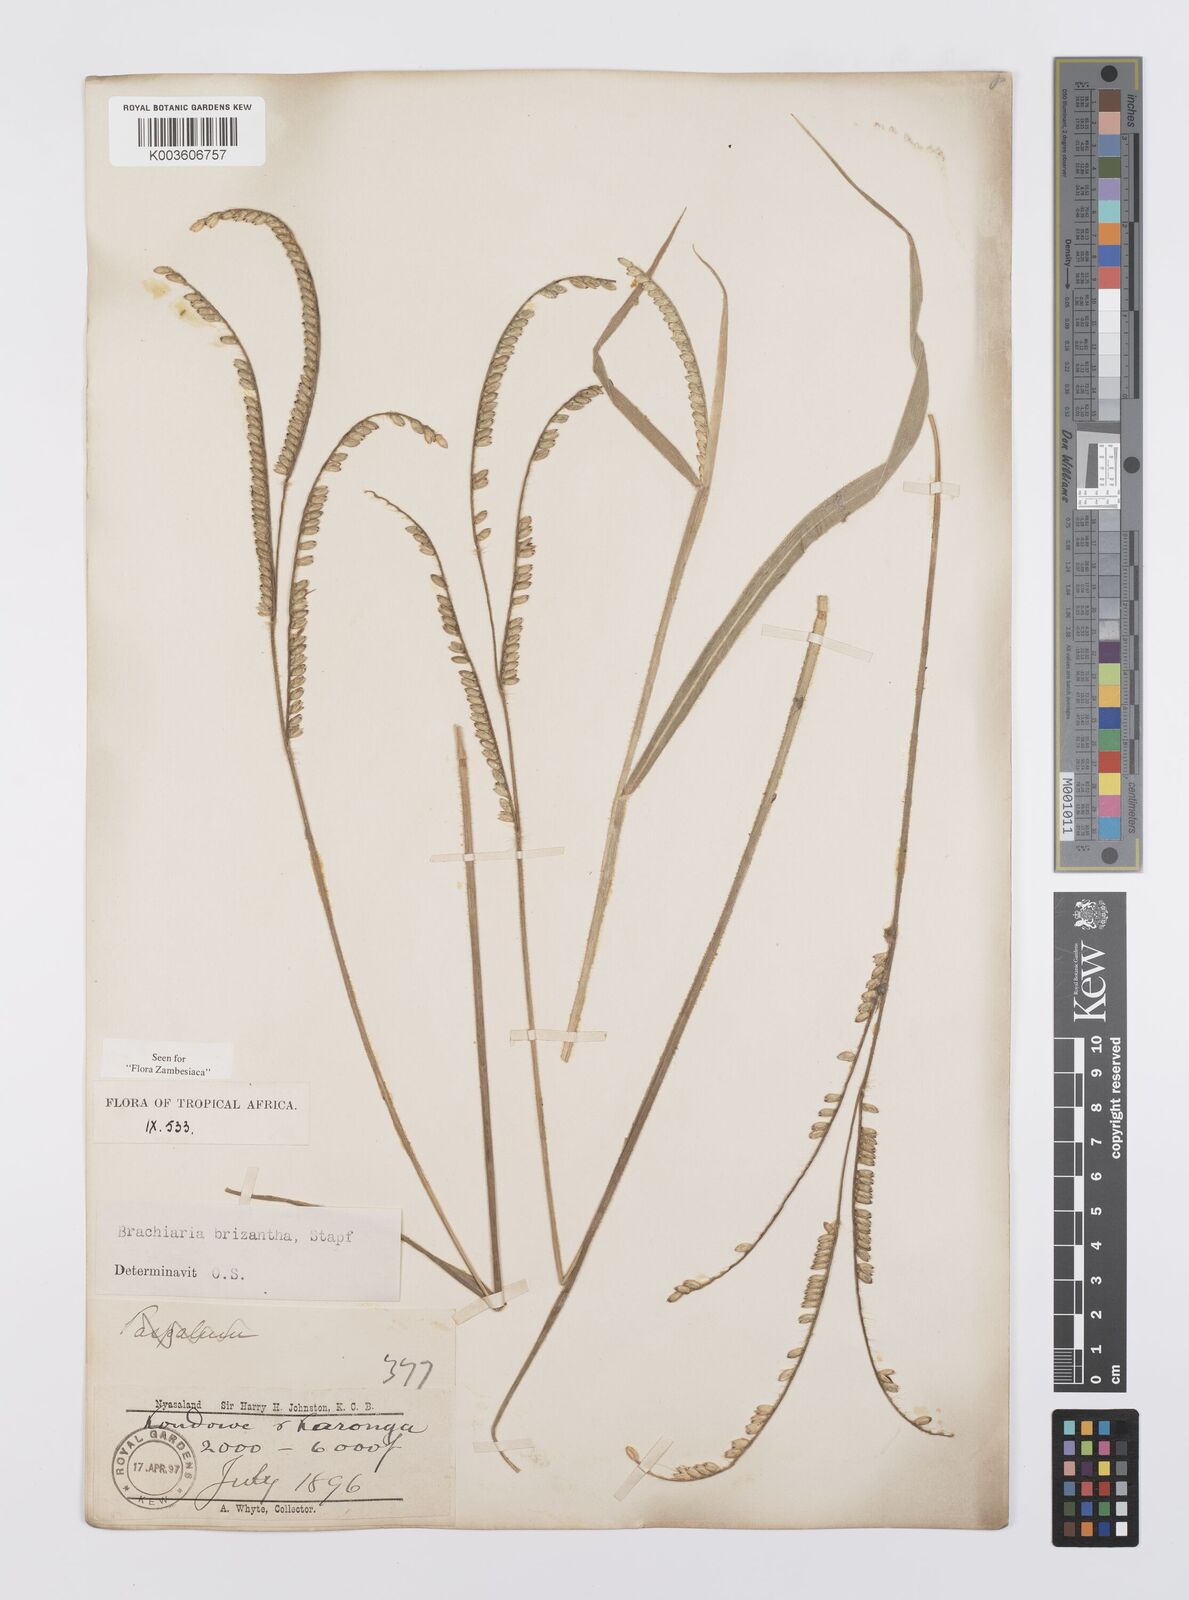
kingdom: Plantae
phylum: Tracheophyta
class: Liliopsida
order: Poales
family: Poaceae
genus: Urochloa
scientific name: Urochloa brizantha
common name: Palisade signalgrass
